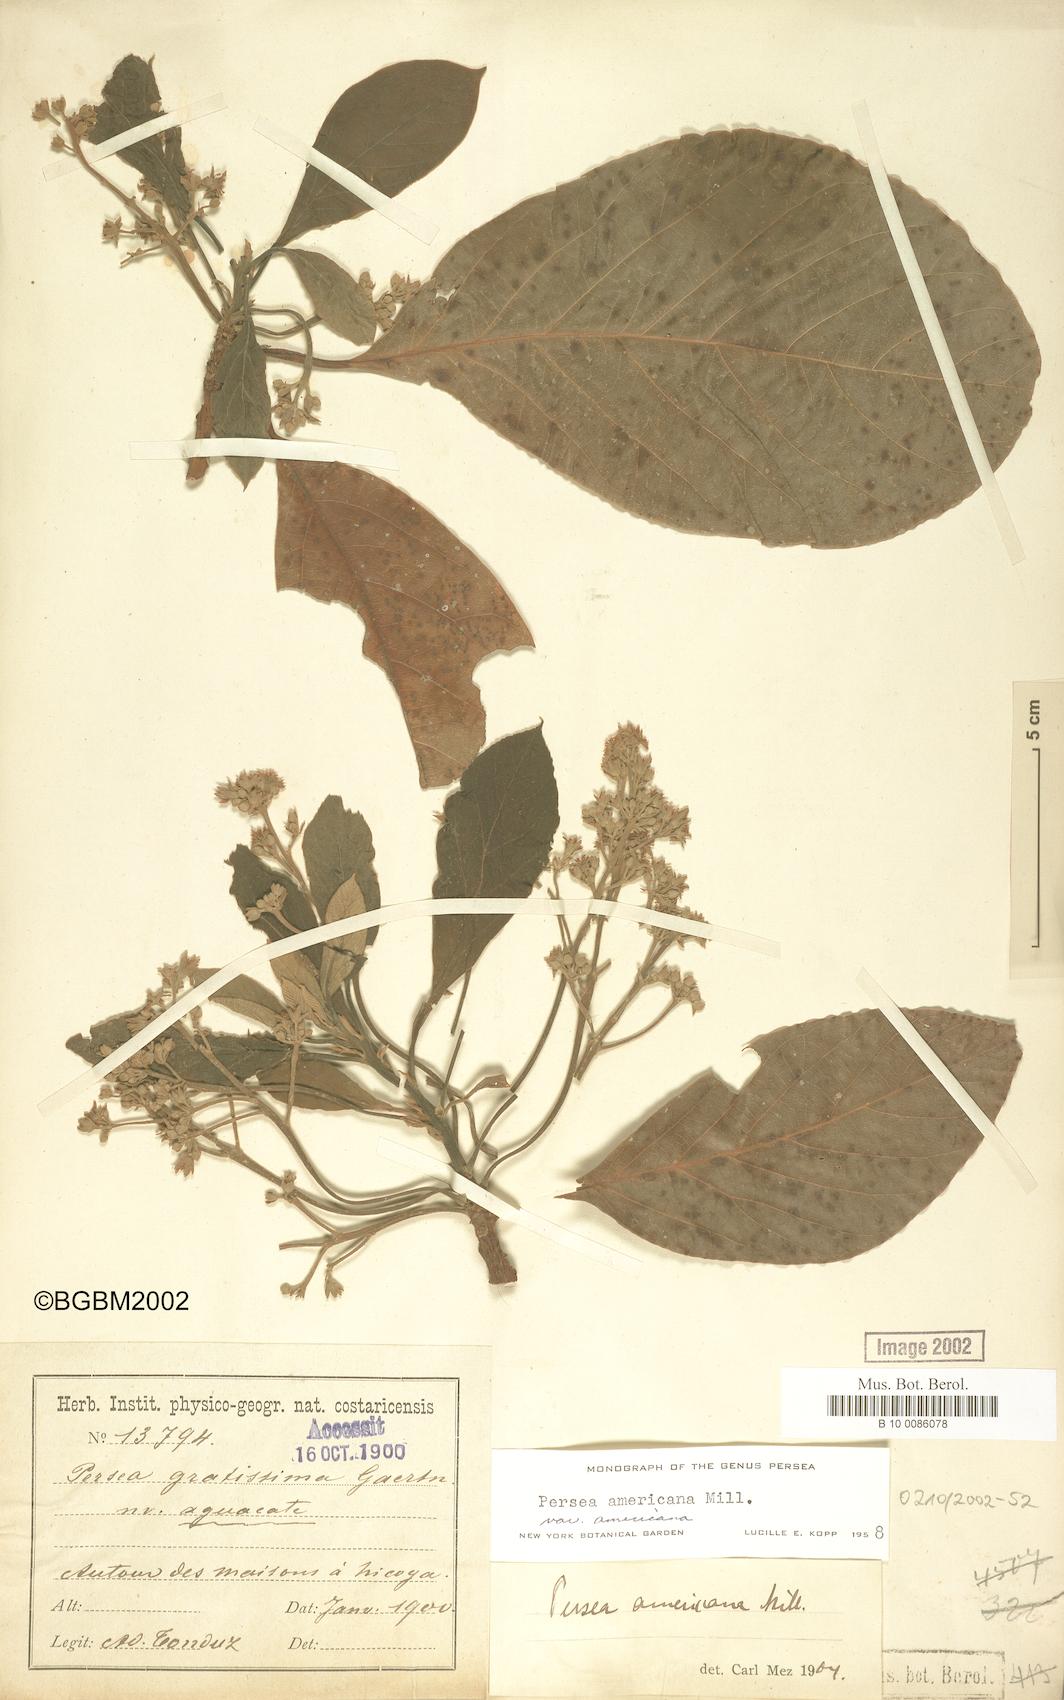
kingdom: Plantae
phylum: Tracheophyta
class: Magnoliopsida
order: Laurales
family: Lauraceae
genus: Persea
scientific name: Persea americana
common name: Avocado
